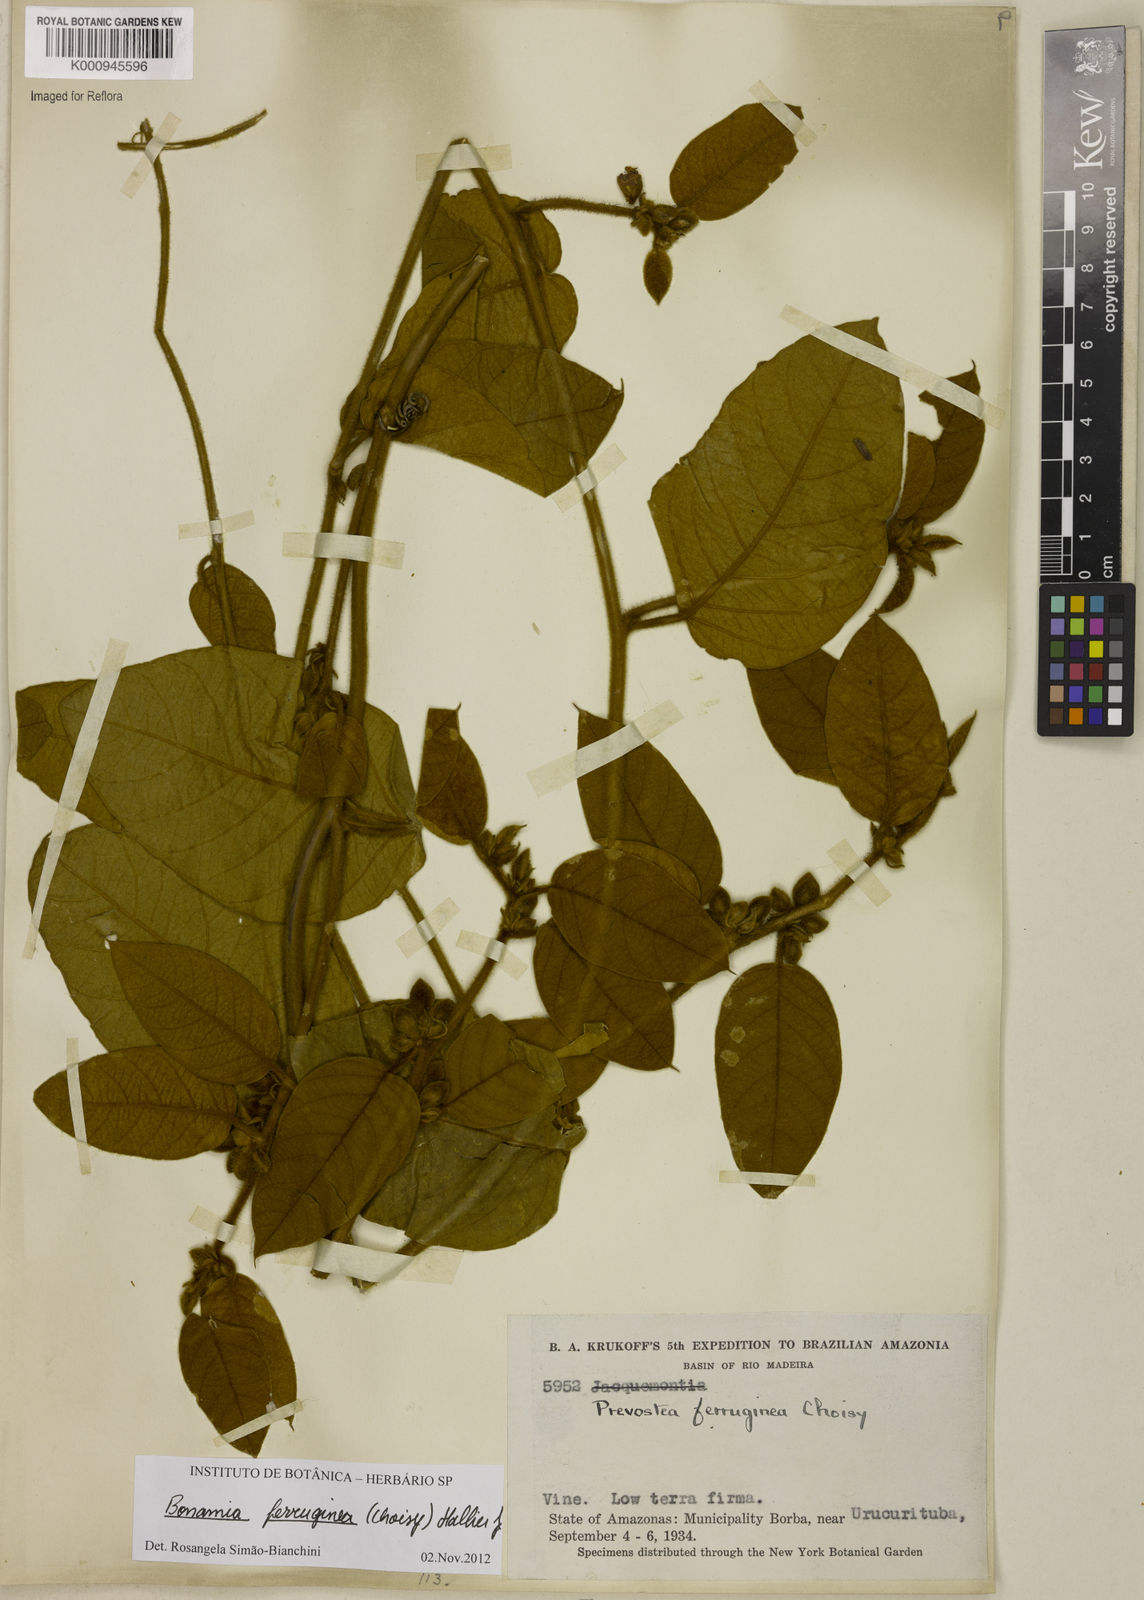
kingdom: Plantae
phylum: Tracheophyta
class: Magnoliopsida
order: Solanales
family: Convolvulaceae
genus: Bonamia
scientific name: Bonamia ferruginea
